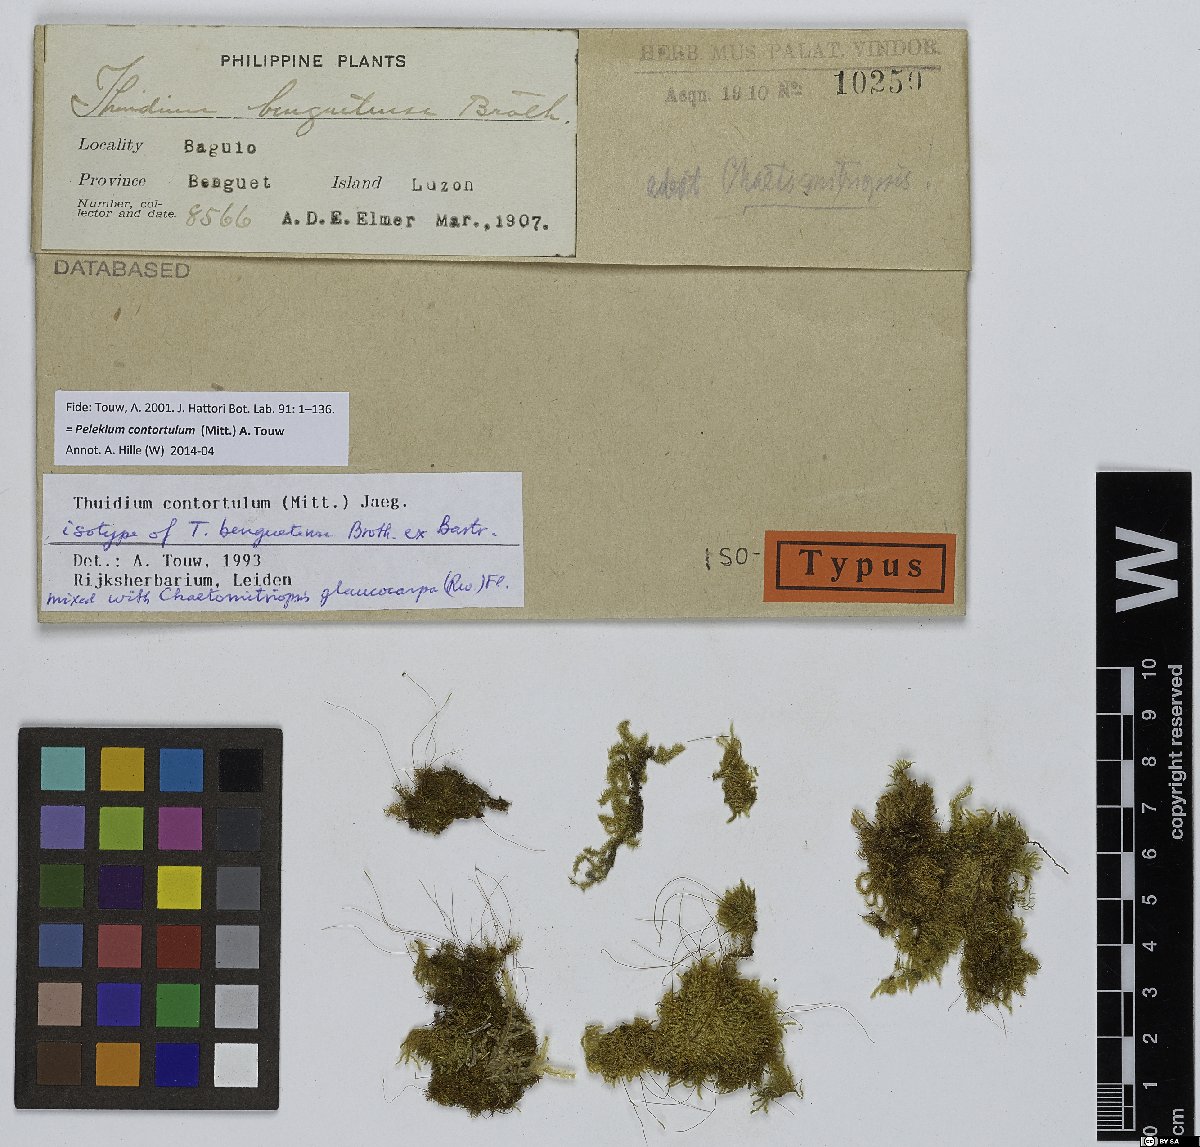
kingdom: Plantae
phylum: Bryophyta
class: Bryopsida
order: Hypnales
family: Thuidiaceae
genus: Pelekium
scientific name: Pelekium contortulum
